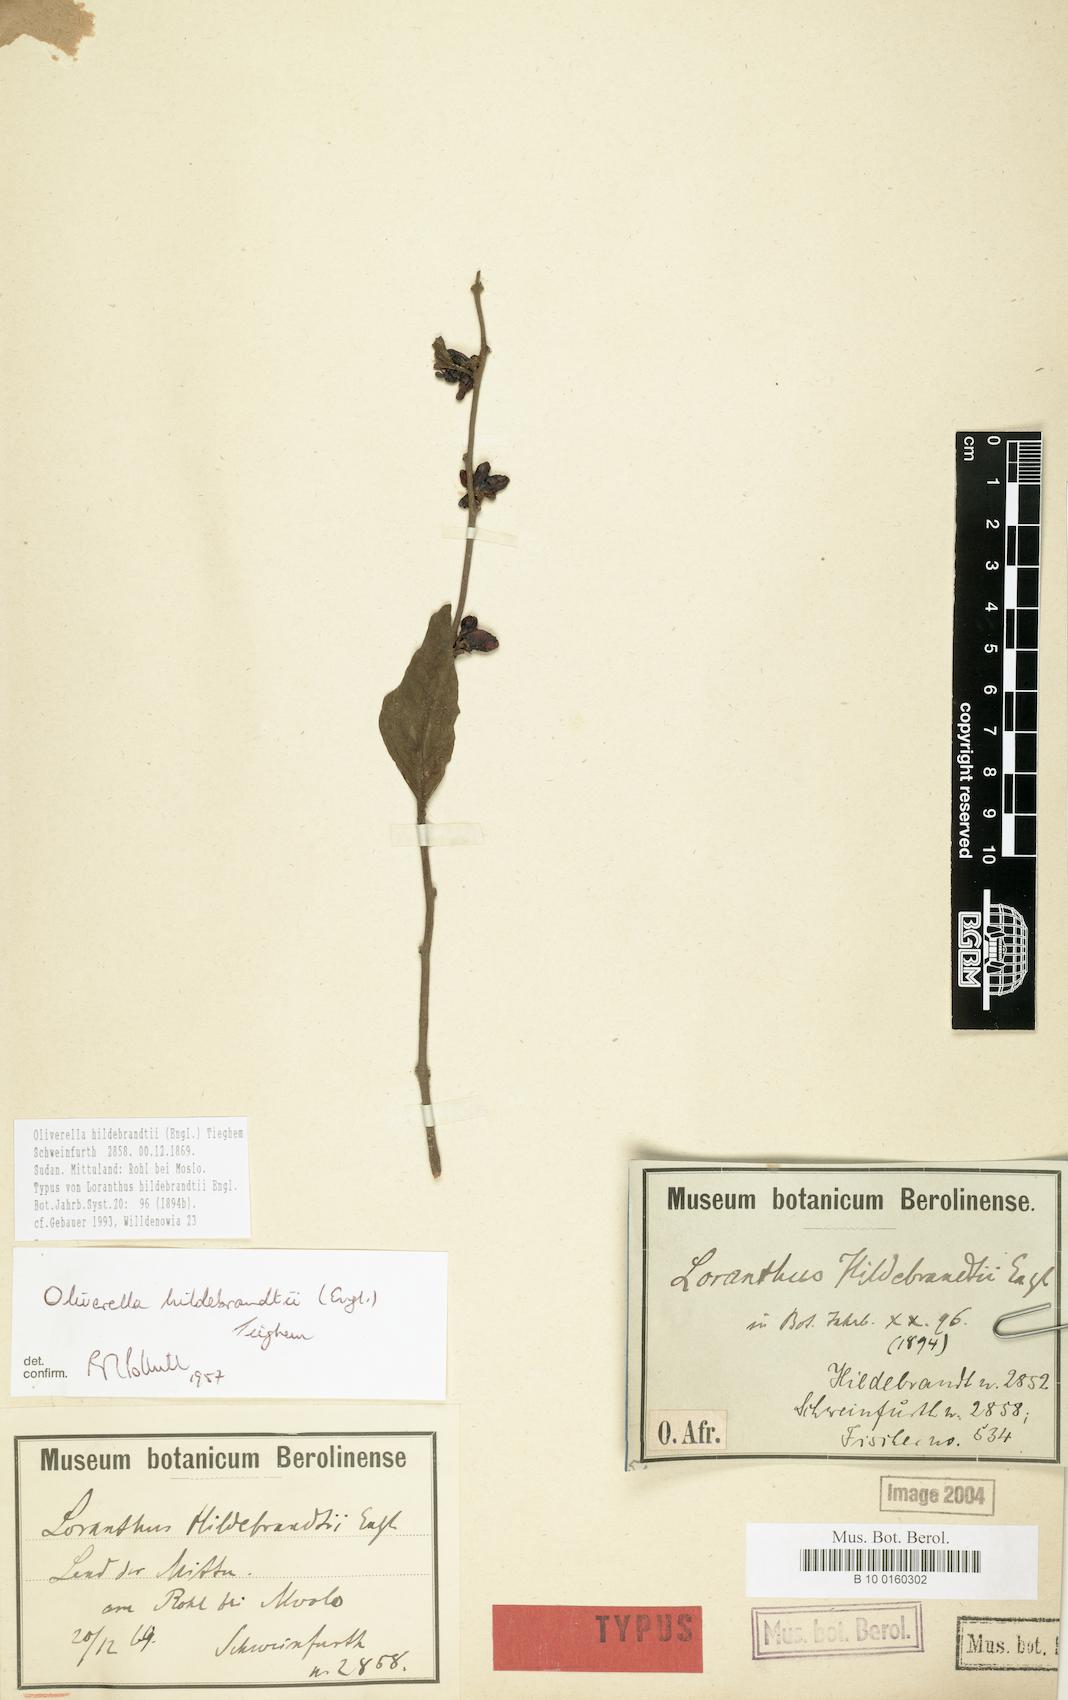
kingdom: Plantae
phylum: Tracheophyta
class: Magnoliopsida
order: Santalales
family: Loranthaceae
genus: Oliverella
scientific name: Oliverella hildebrandtii
